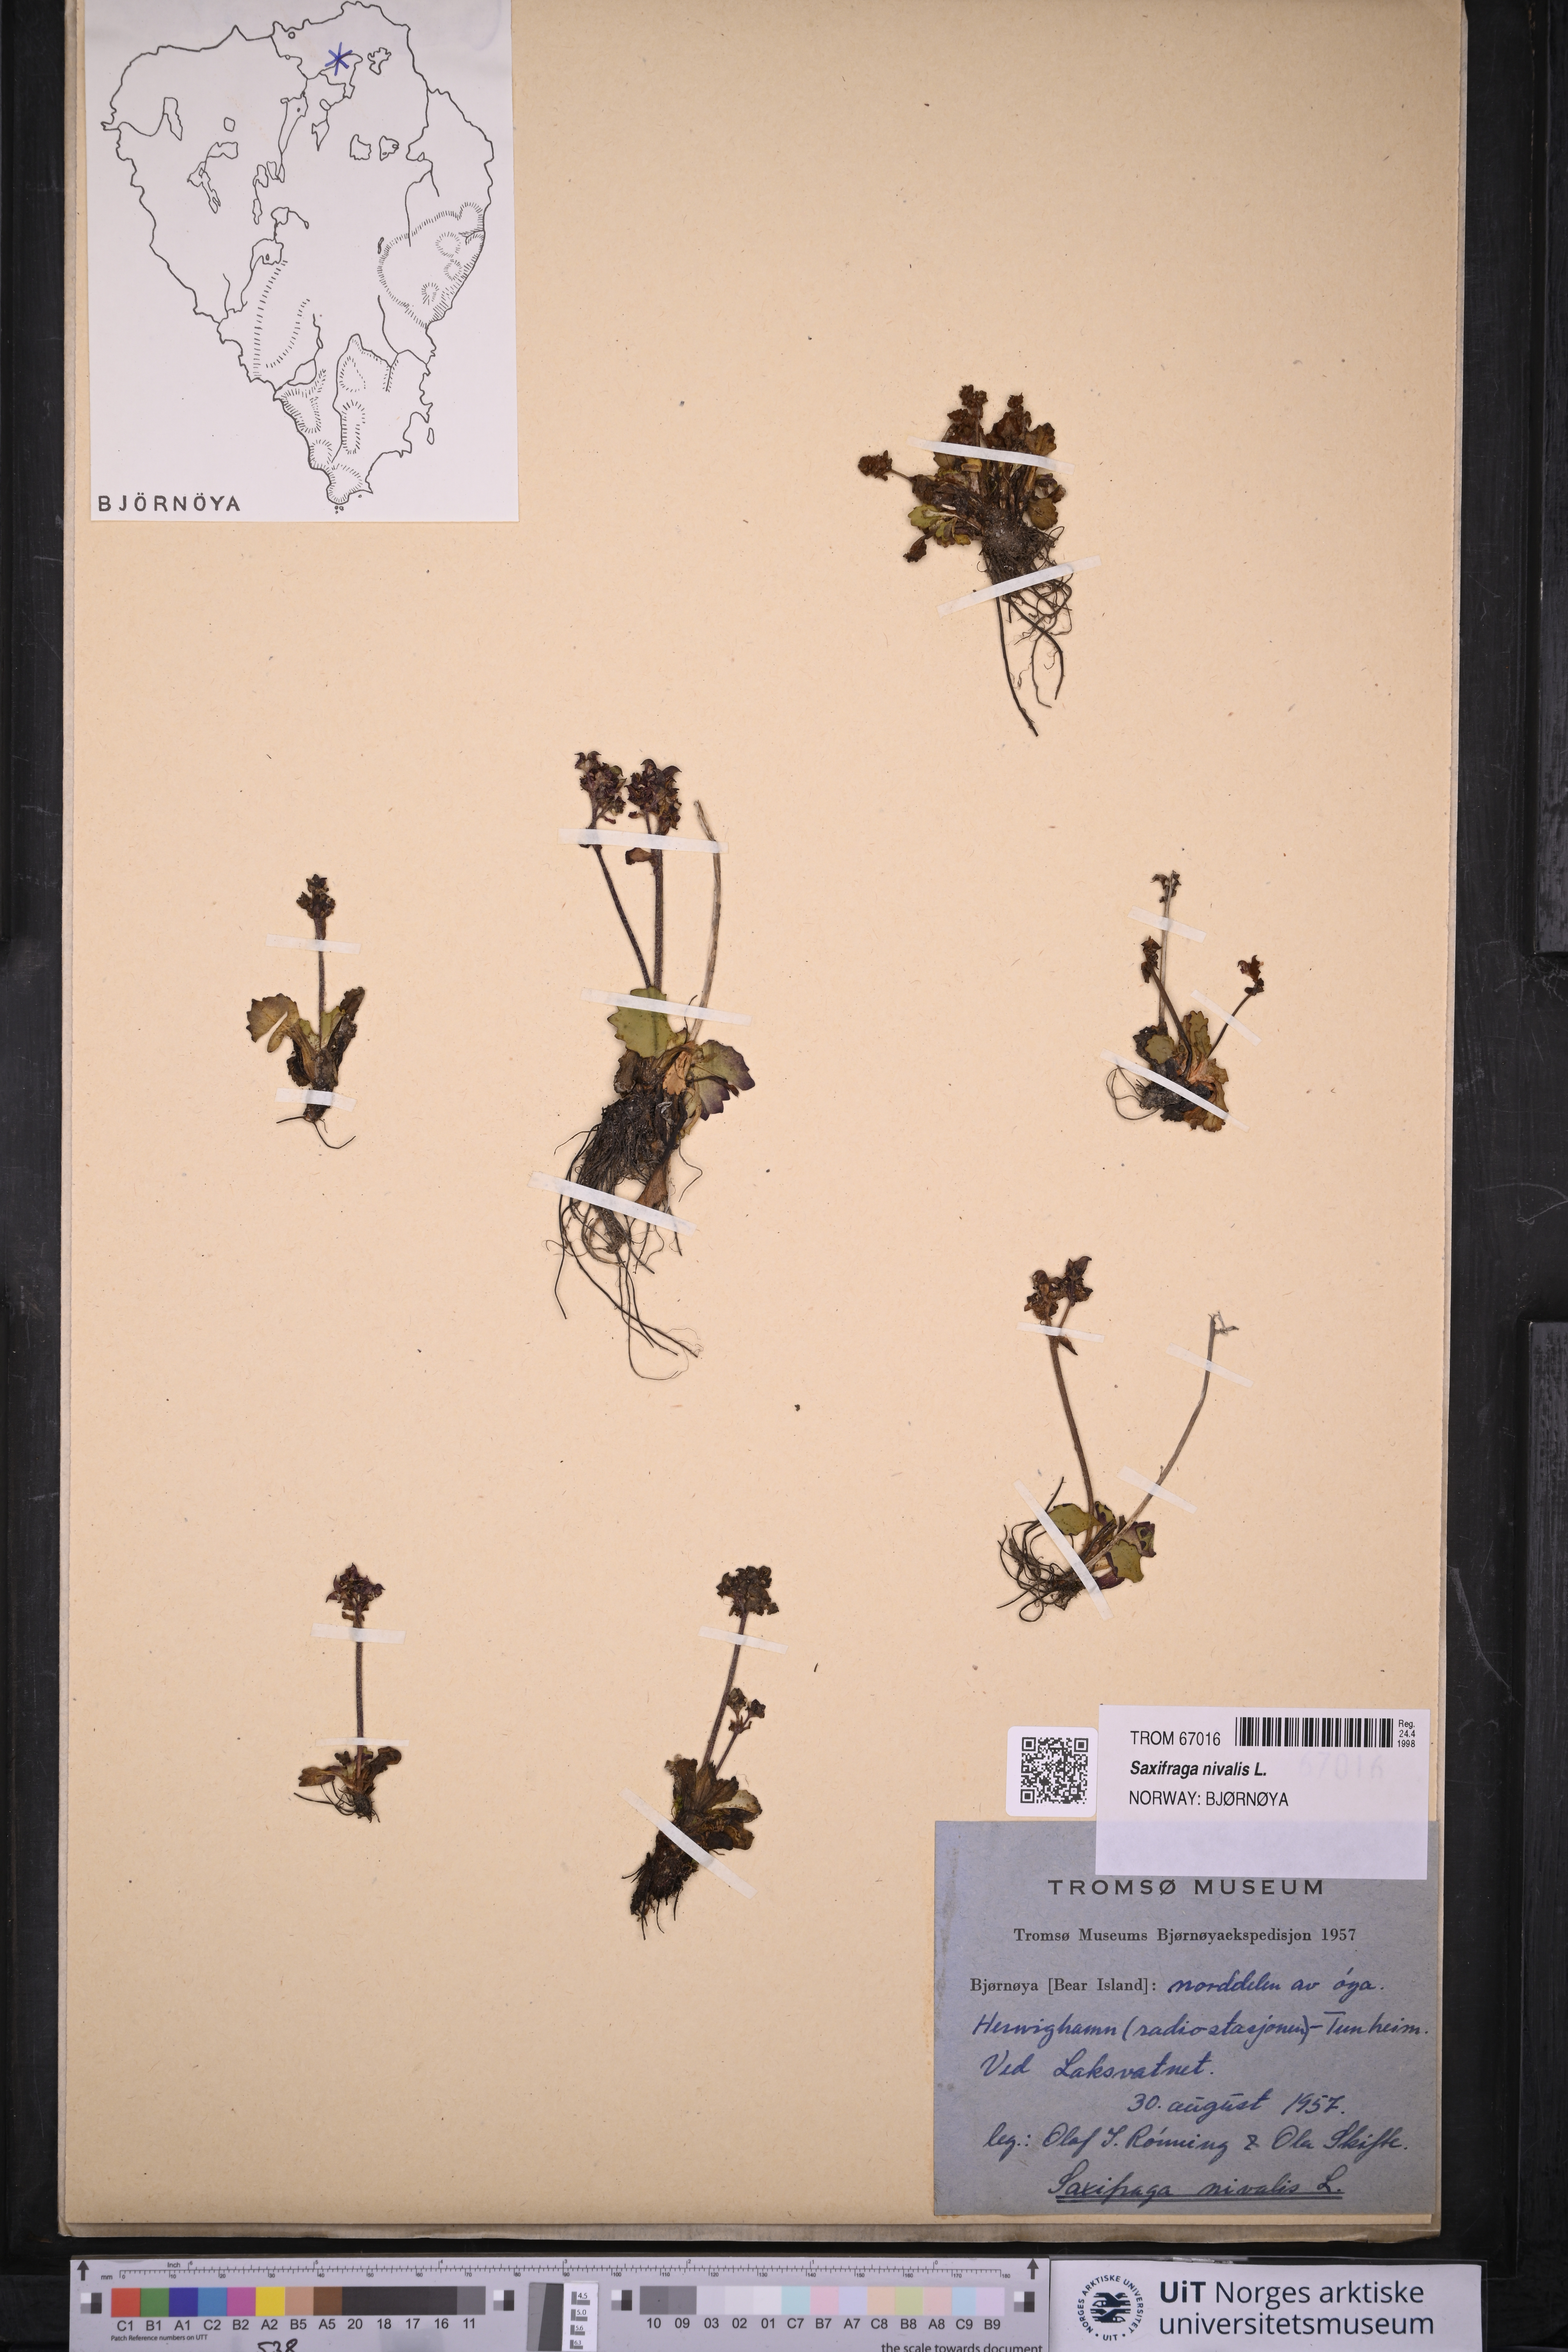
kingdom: Plantae
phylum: Tracheophyta
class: Magnoliopsida
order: Saxifragales
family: Saxifragaceae
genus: Micranthes
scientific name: Micranthes nivalis
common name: Alpine saxifrage
